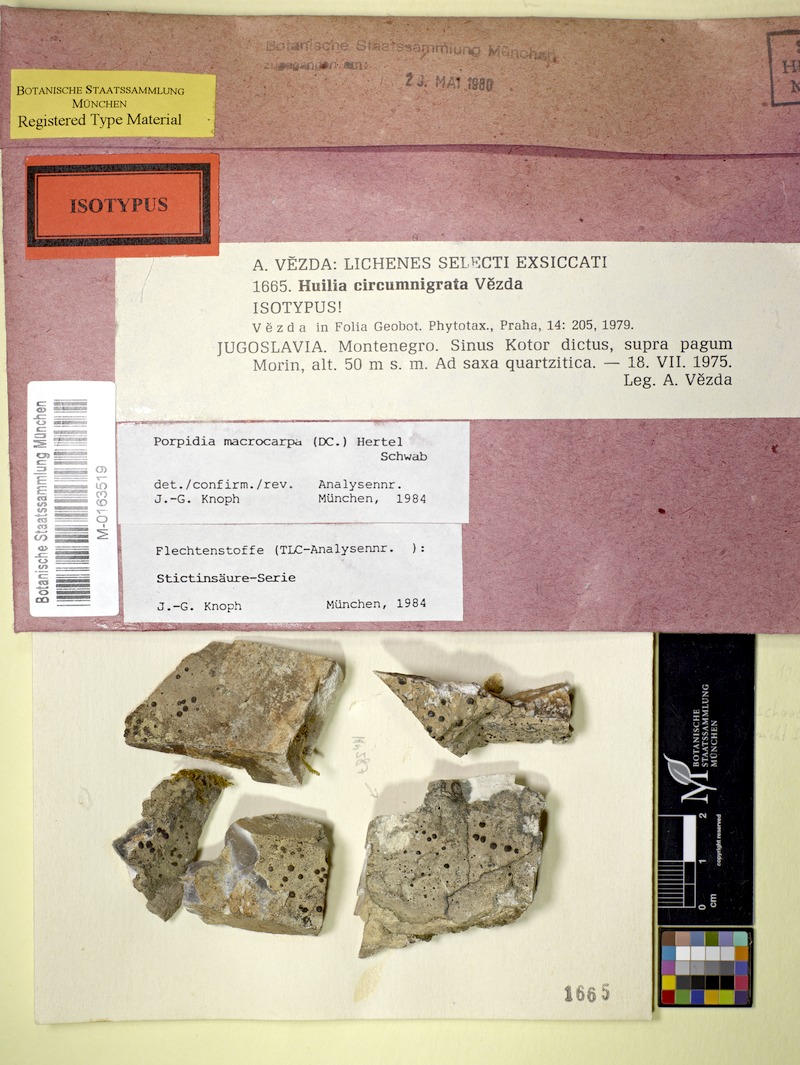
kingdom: Fungi
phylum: Ascomycota
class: Lecanoromycetes
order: Lecideales
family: Lecideaceae
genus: Porpidia
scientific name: Porpidia macrocarpa
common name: Common boulder lichen
